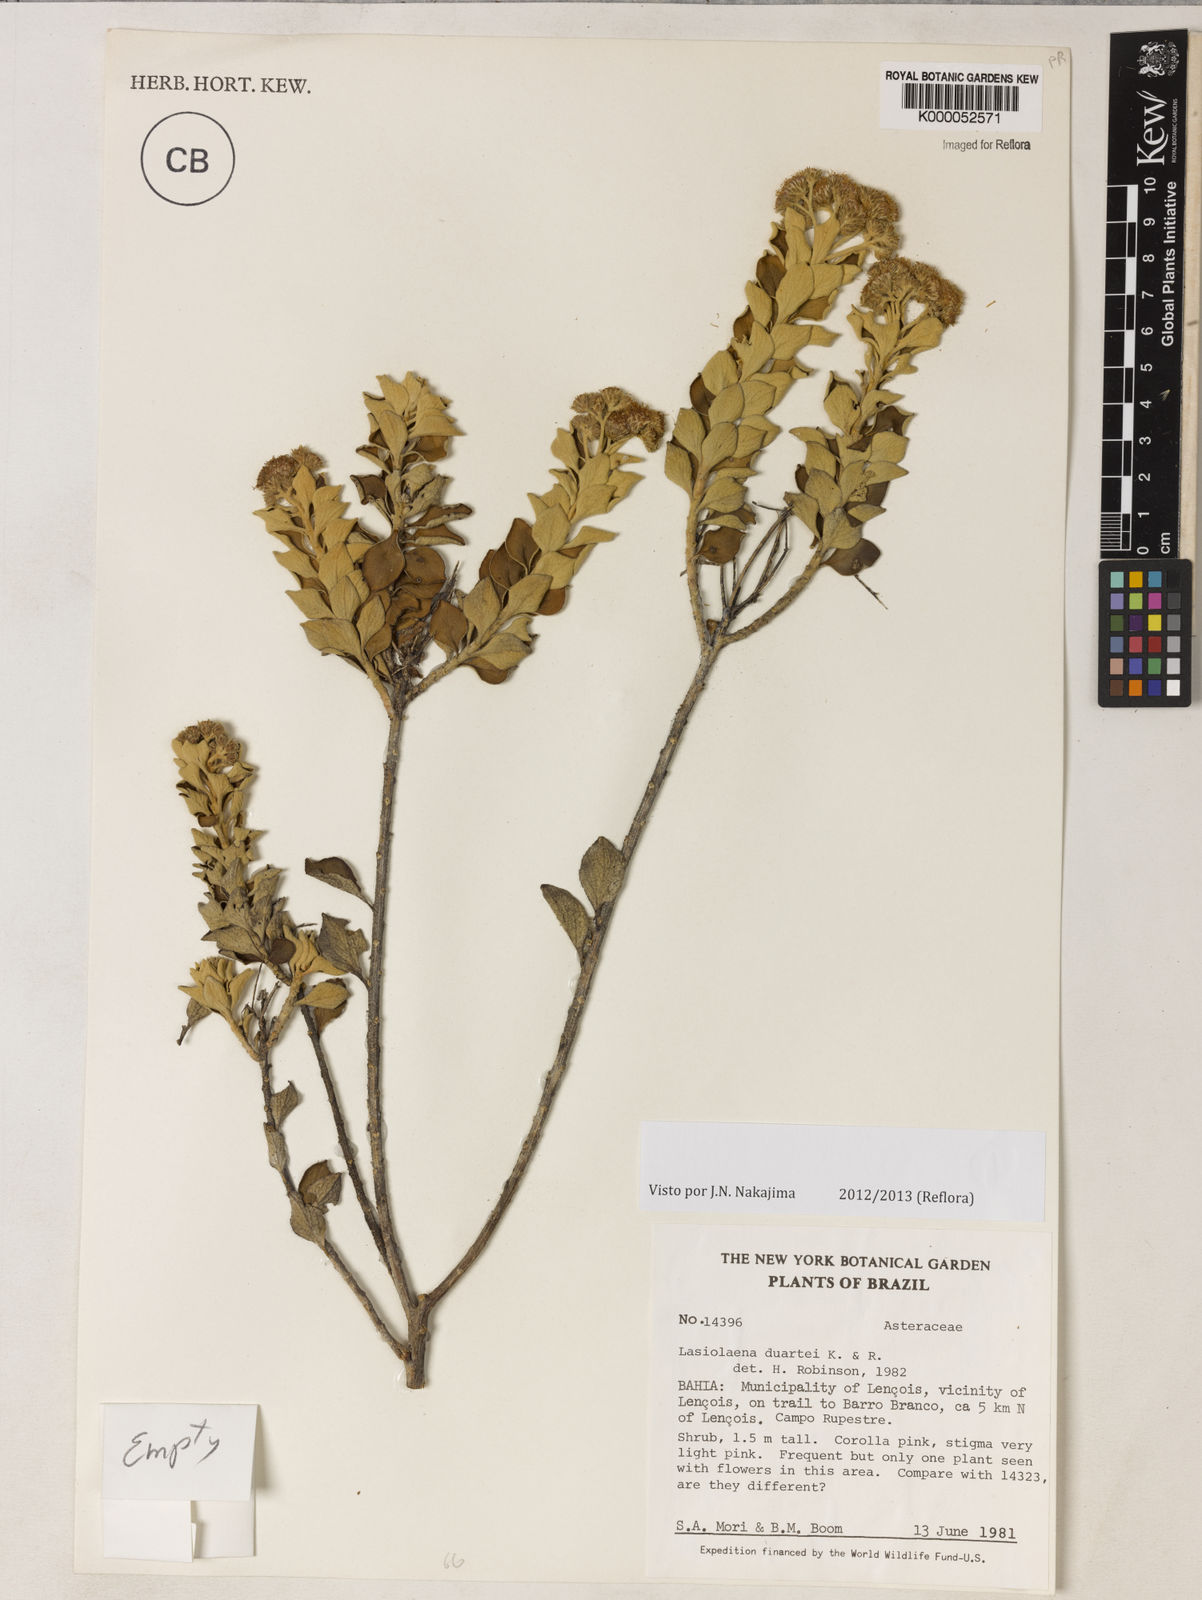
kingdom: Plantae
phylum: Tracheophyta
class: Magnoliopsida
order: Asterales
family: Asteraceae
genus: Lasiolaena
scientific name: Lasiolaena duartei
